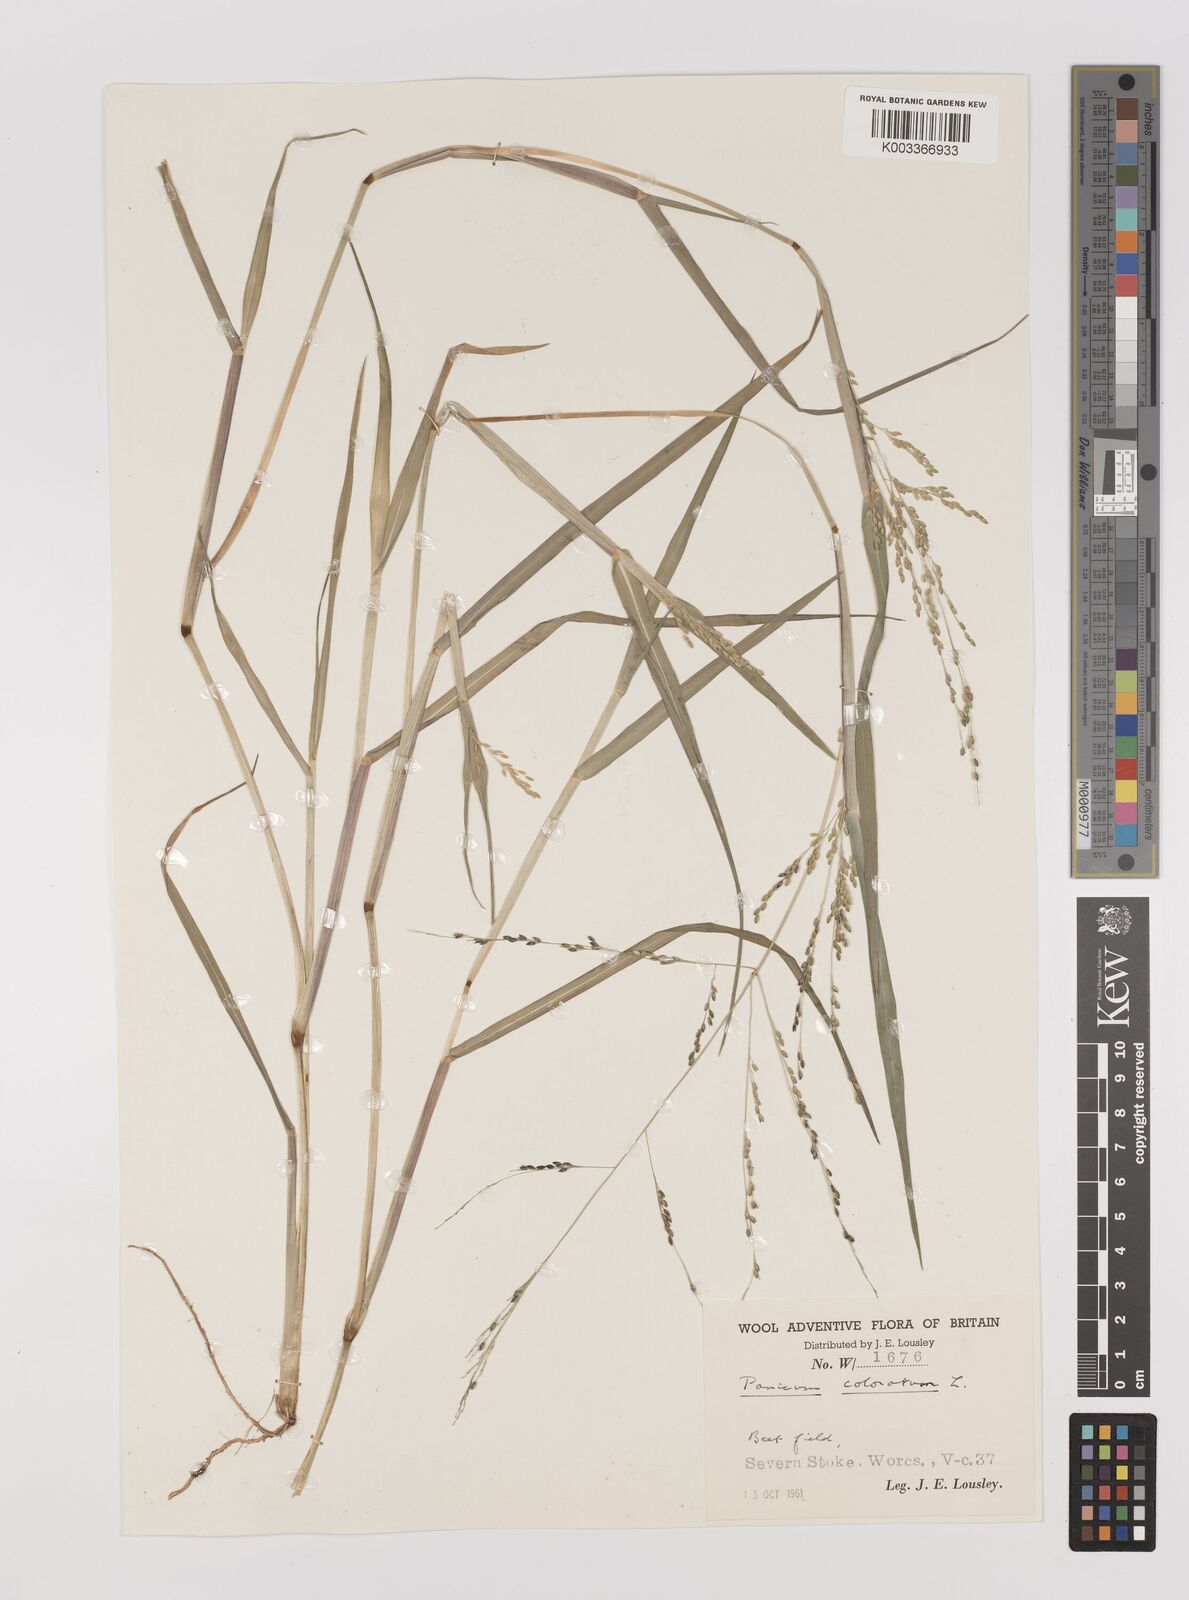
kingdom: Plantae
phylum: Tracheophyta
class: Liliopsida
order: Poales
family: Poaceae
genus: Panicum
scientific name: Panicum coloratum
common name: Kleingrass
